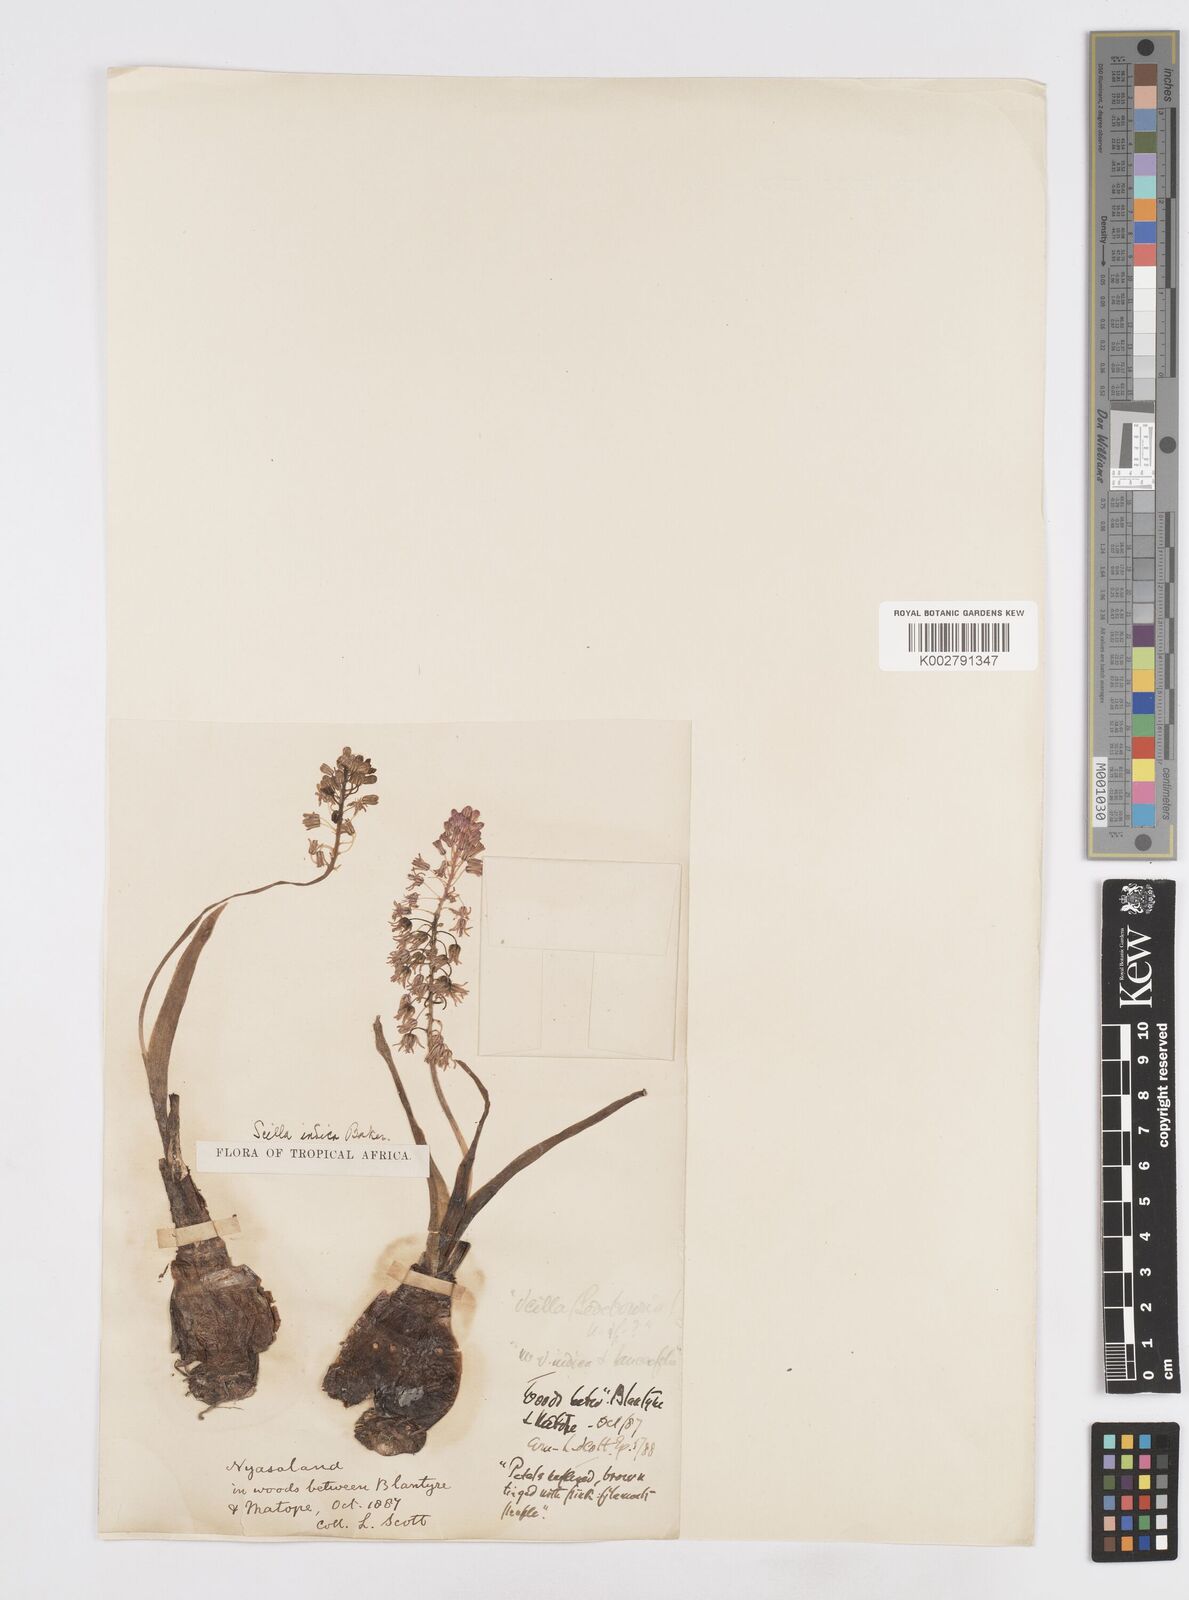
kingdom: Plantae
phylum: Tracheophyta
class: Liliopsida
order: Asparagales
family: Asparagaceae
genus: Ledebouria
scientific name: Ledebouria revoluta
